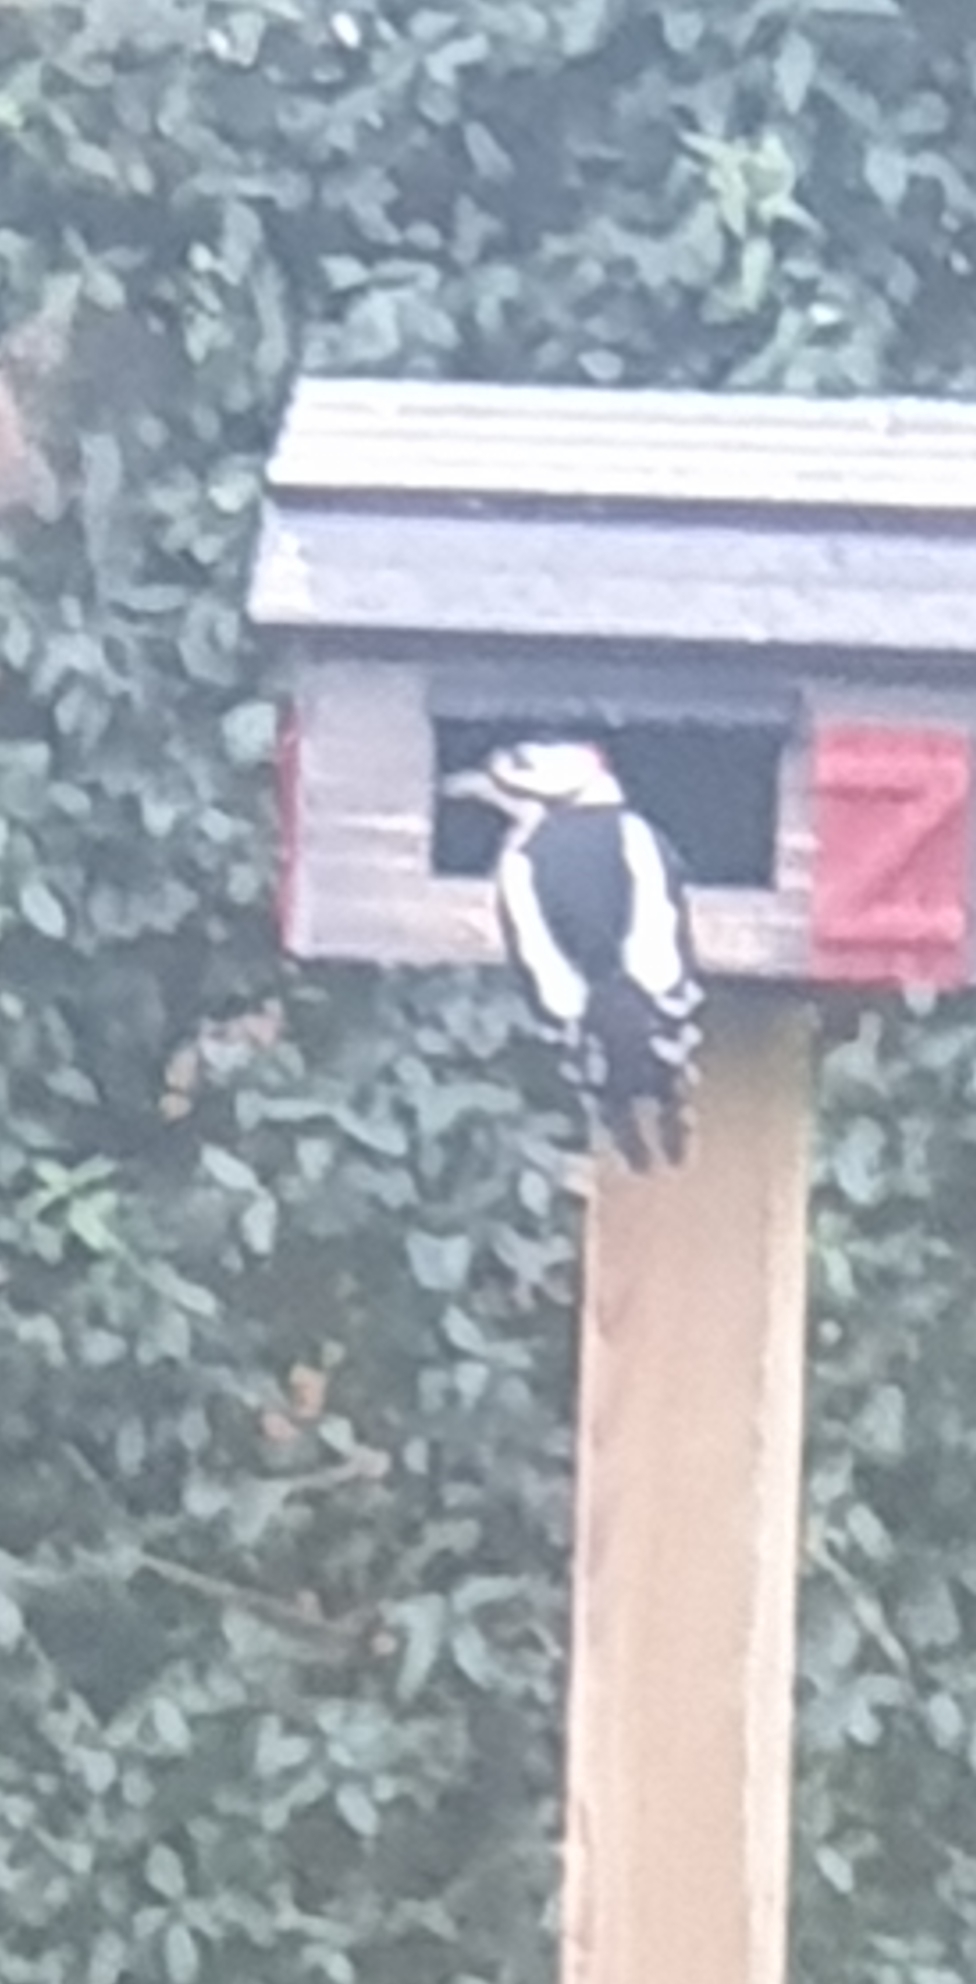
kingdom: Animalia
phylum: Chordata
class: Aves
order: Piciformes
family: Picidae
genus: Dendrocopos
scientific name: Dendrocopos major
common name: Stor flagspætte
